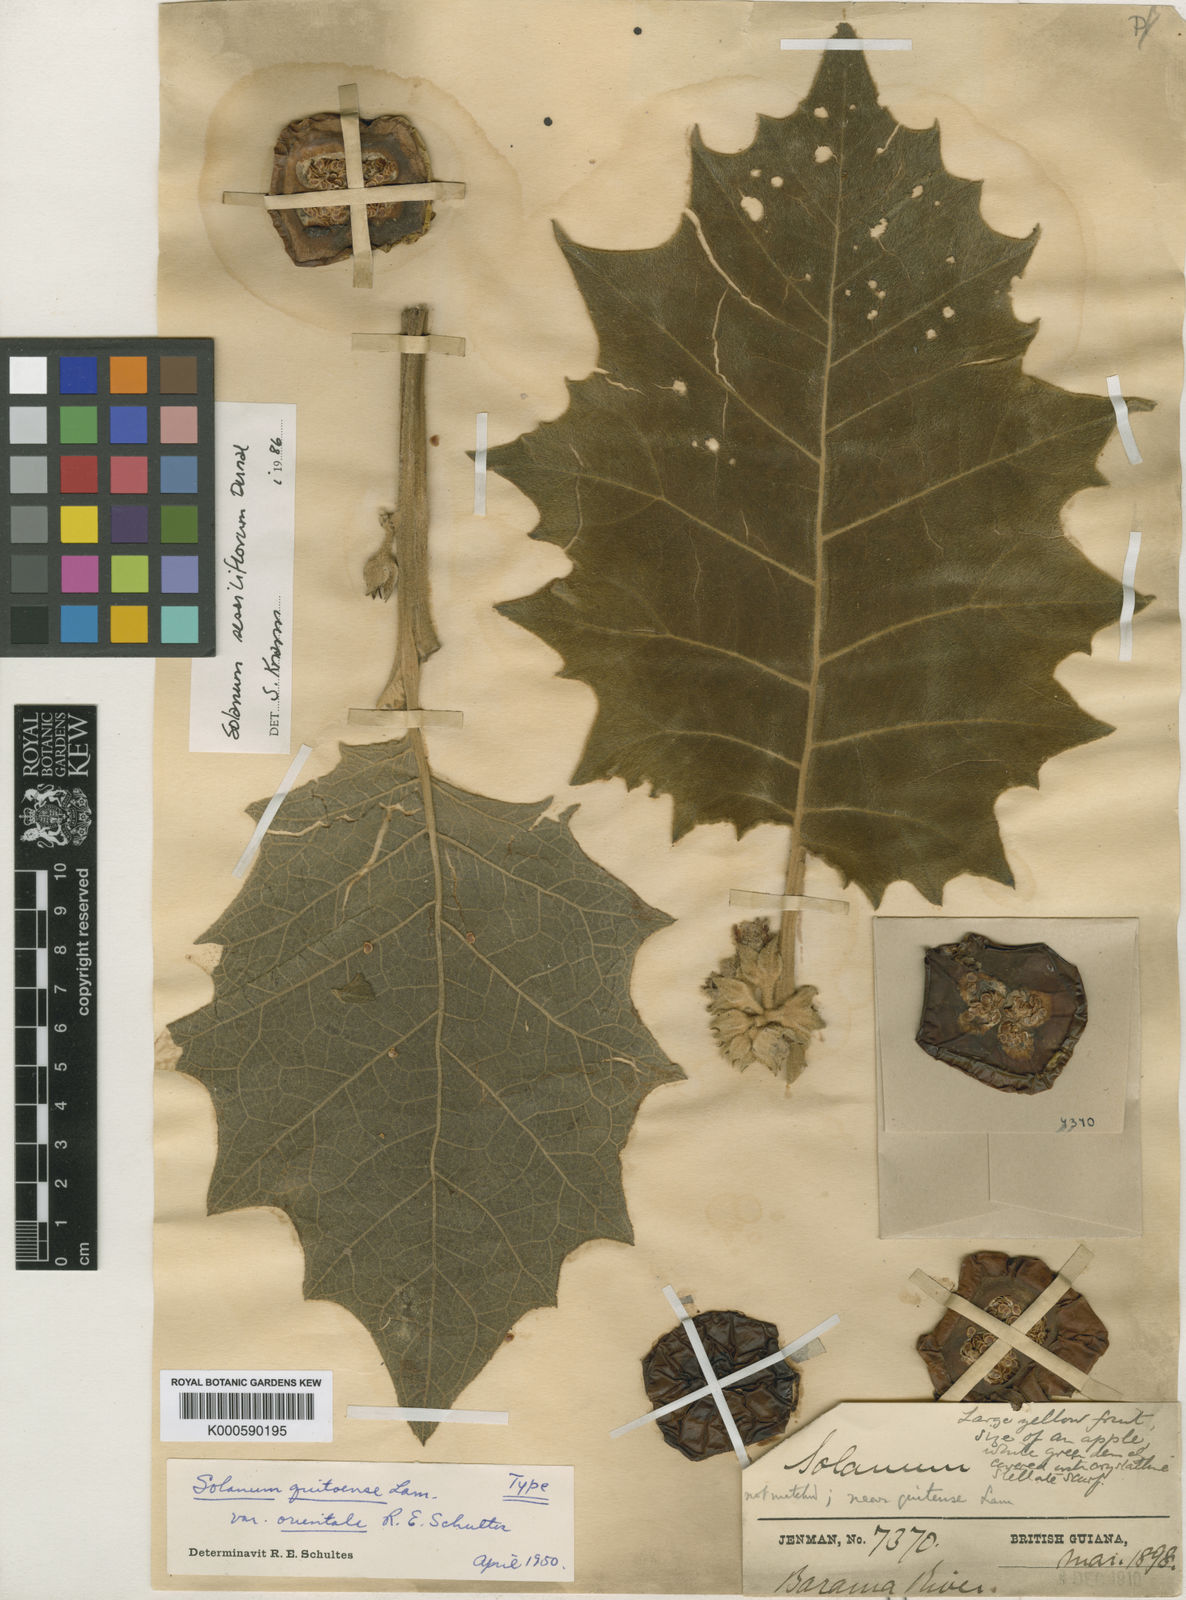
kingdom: Plantae
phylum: Tracheophyta
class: Magnoliopsida
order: Solanales
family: Solanaceae
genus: Solanum
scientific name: Solanum sessiliflorum
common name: Orinoco-apple
